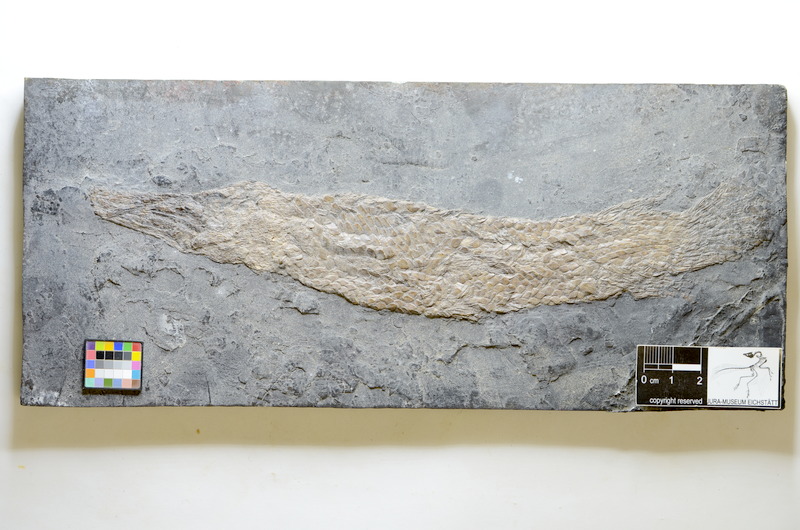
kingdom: Animalia
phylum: Chordata
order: Lepisosteiformes
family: Lepisosteidae
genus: Atractosteus
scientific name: Atractosteus
